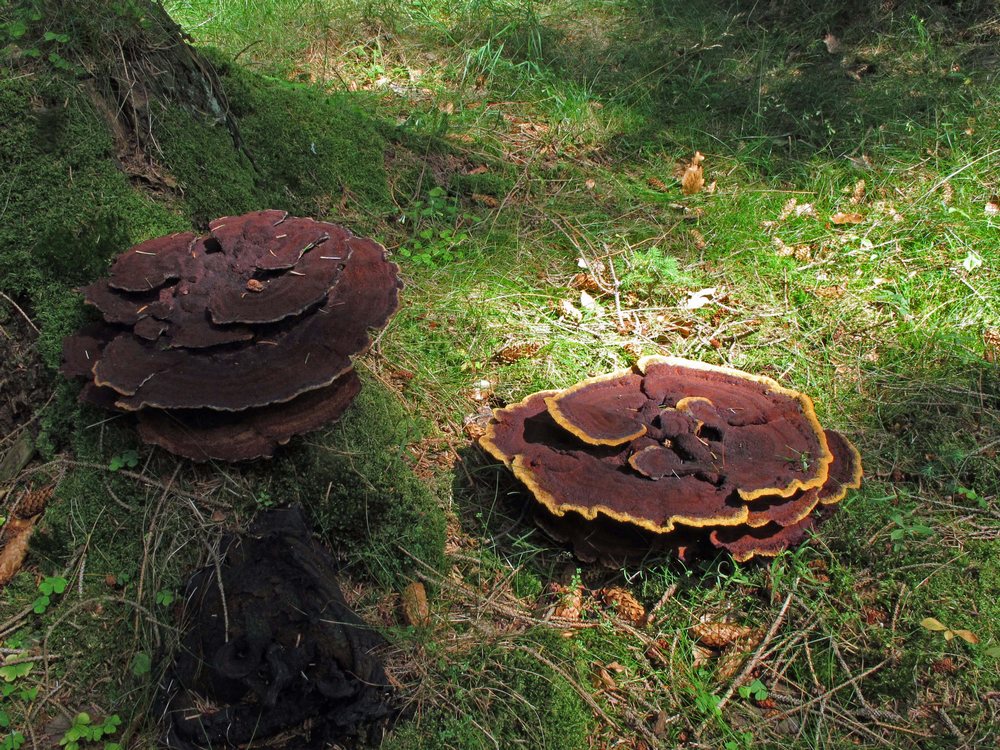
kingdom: Fungi
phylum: Basidiomycota
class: Agaricomycetes
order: Polyporales
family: Laetiporaceae
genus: Phaeolus
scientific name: Phaeolus schweinitzii
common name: brunporesvamp
